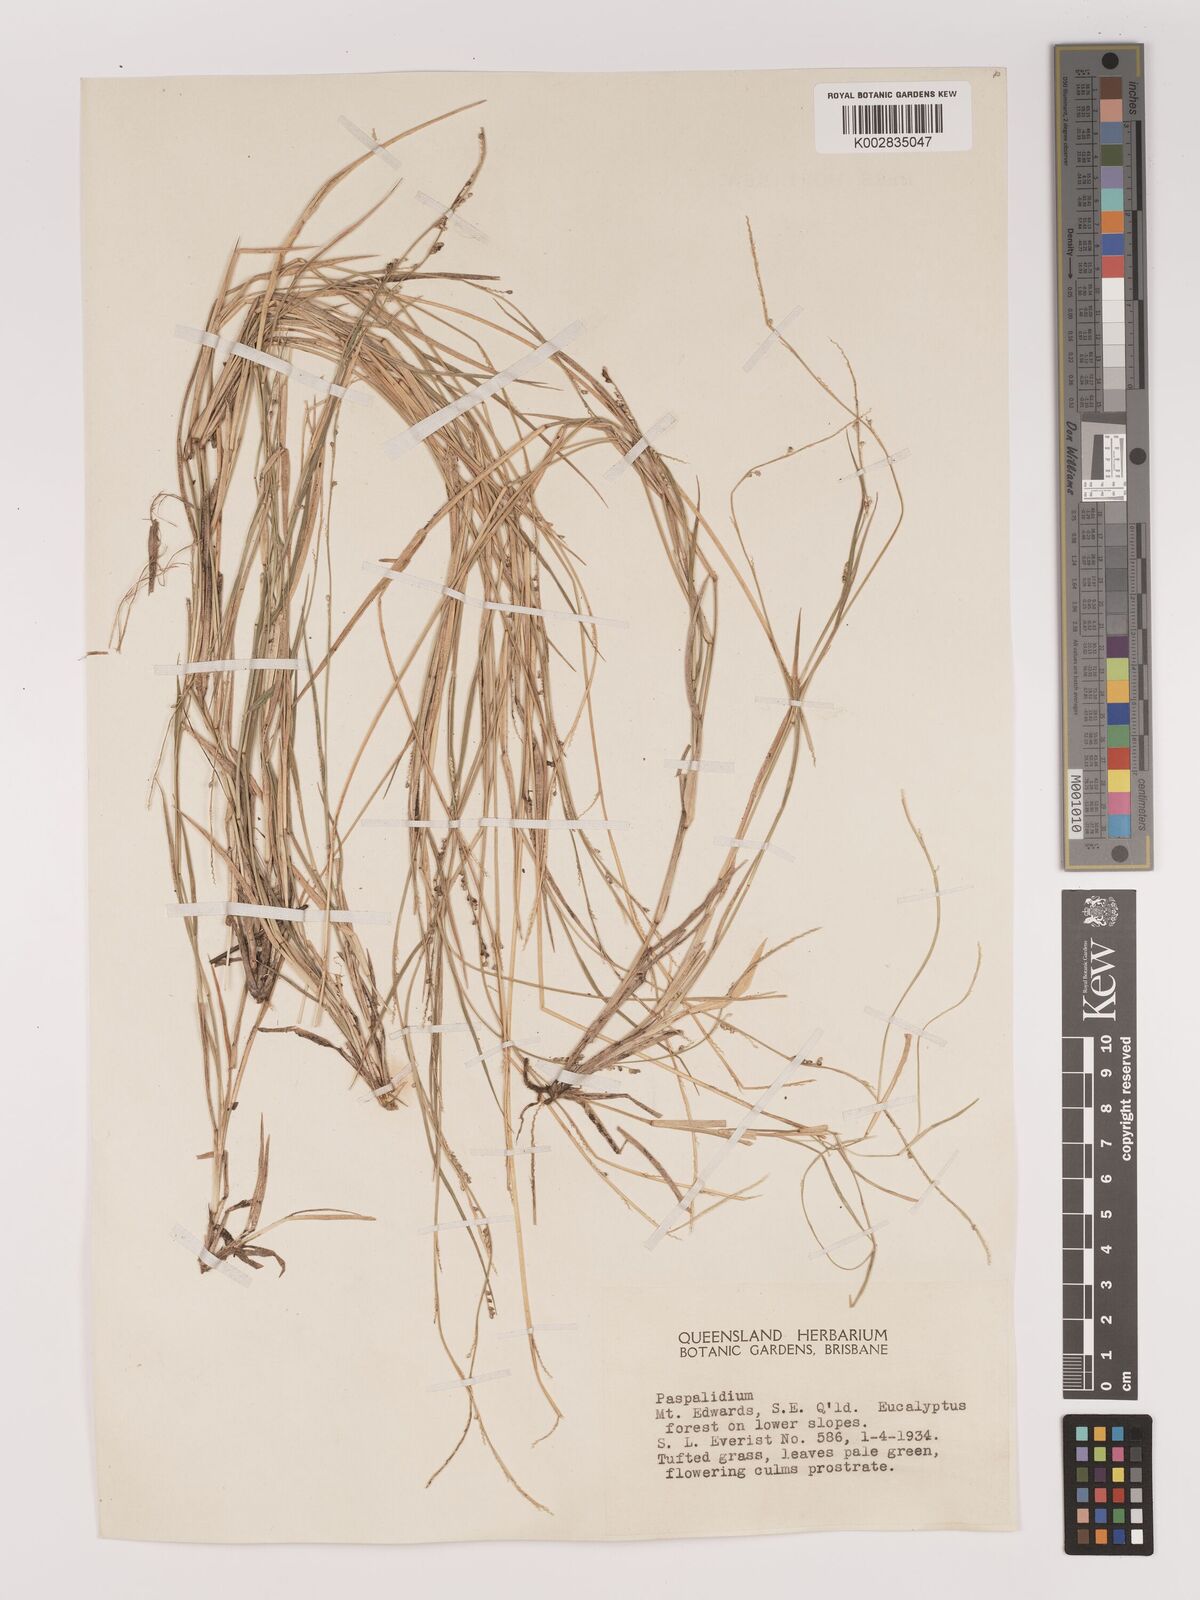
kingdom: Plantae
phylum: Tracheophyta
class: Liliopsida
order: Poales
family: Poaceae
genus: Setaria
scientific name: Setaria
